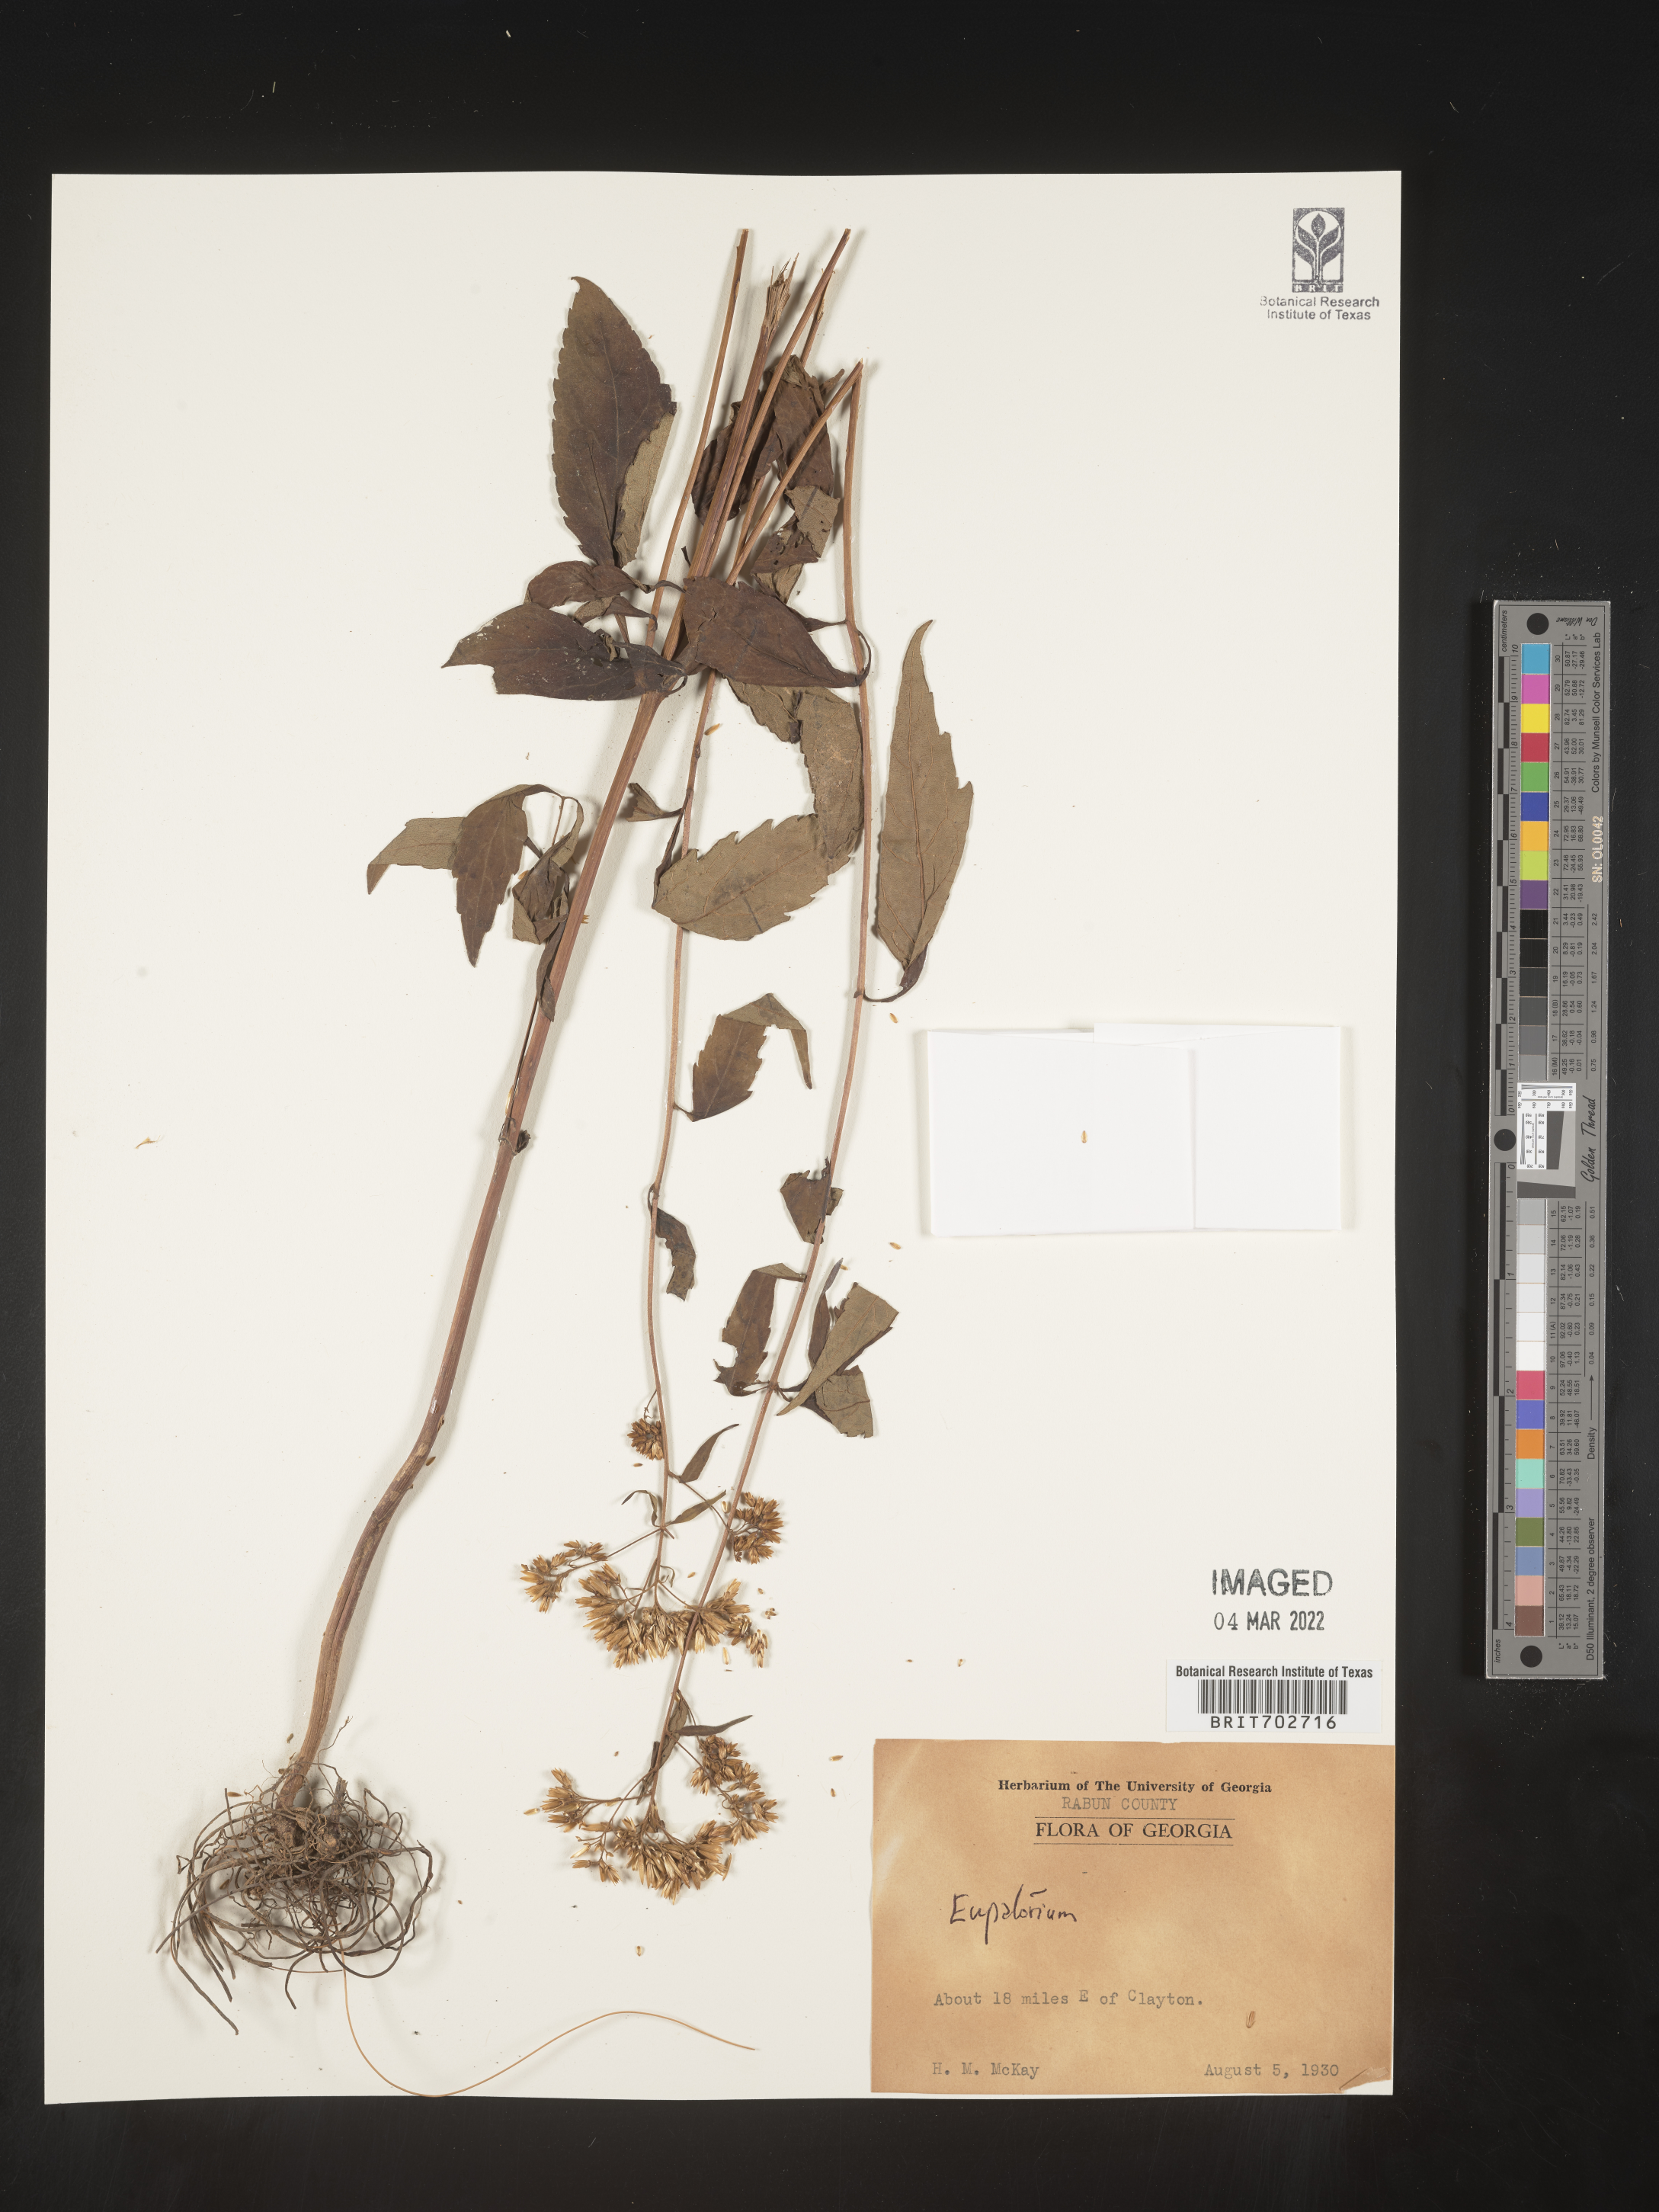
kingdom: Plantae
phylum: Tracheophyta
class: Magnoliopsida
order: Asterales
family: Asteraceae
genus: Eupatorium
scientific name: Eupatorium
